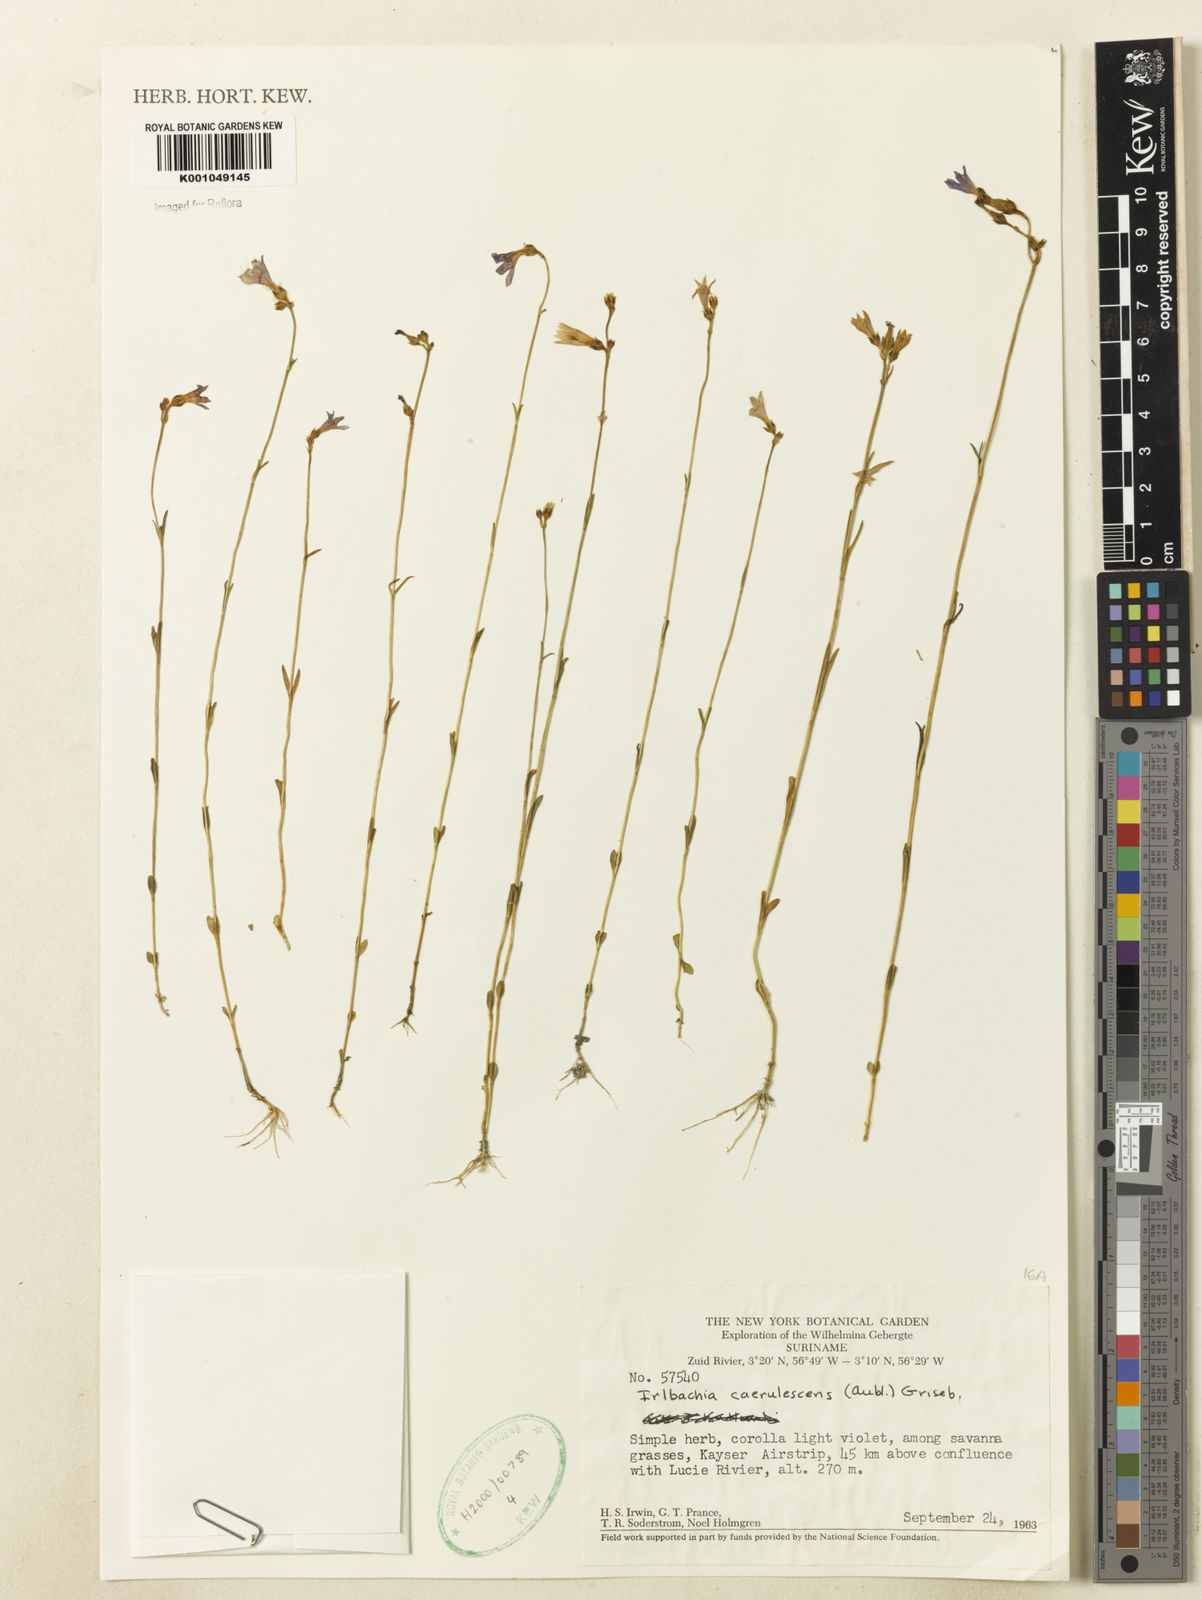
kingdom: Plantae
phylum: Tracheophyta
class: Magnoliopsida
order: Gentianales
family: Gentianaceae
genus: Tetrapollinia
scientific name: Tetrapollinia caerulescens
